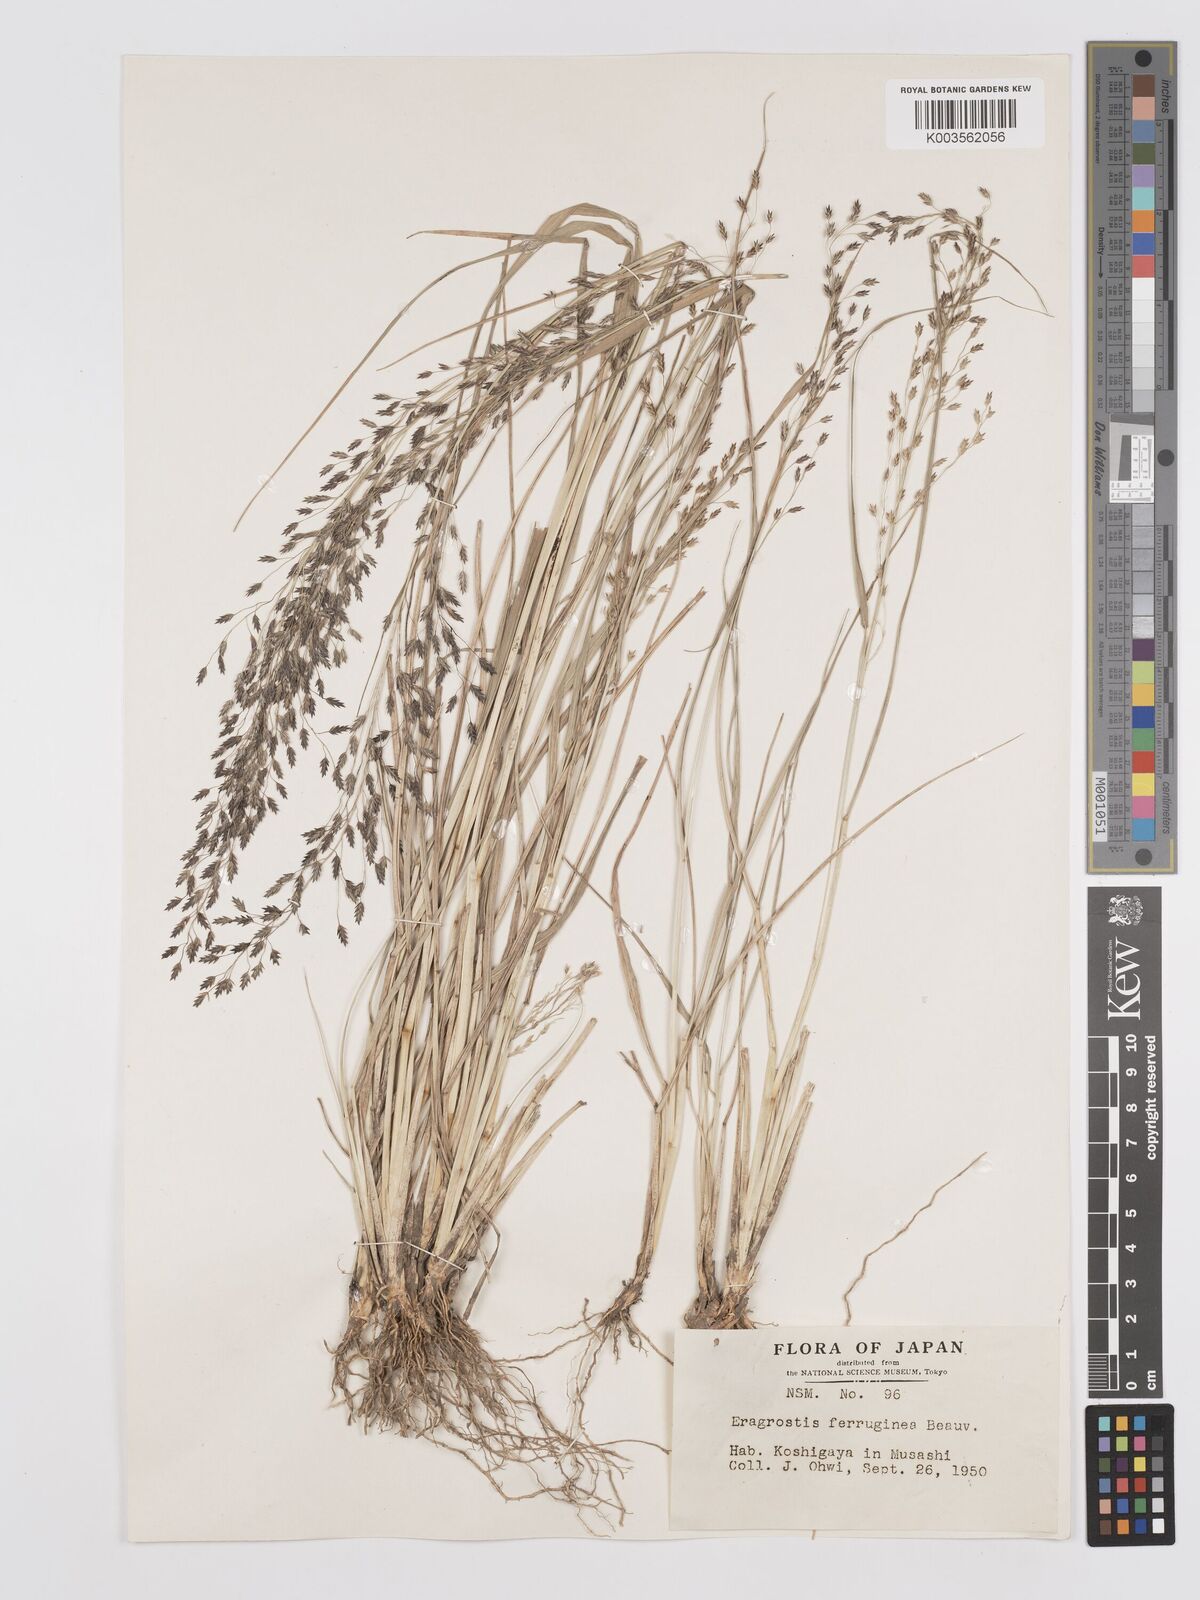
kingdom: Plantae
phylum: Tracheophyta
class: Liliopsida
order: Poales
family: Poaceae
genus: Eragrostis
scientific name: Eragrostis ferruginea
